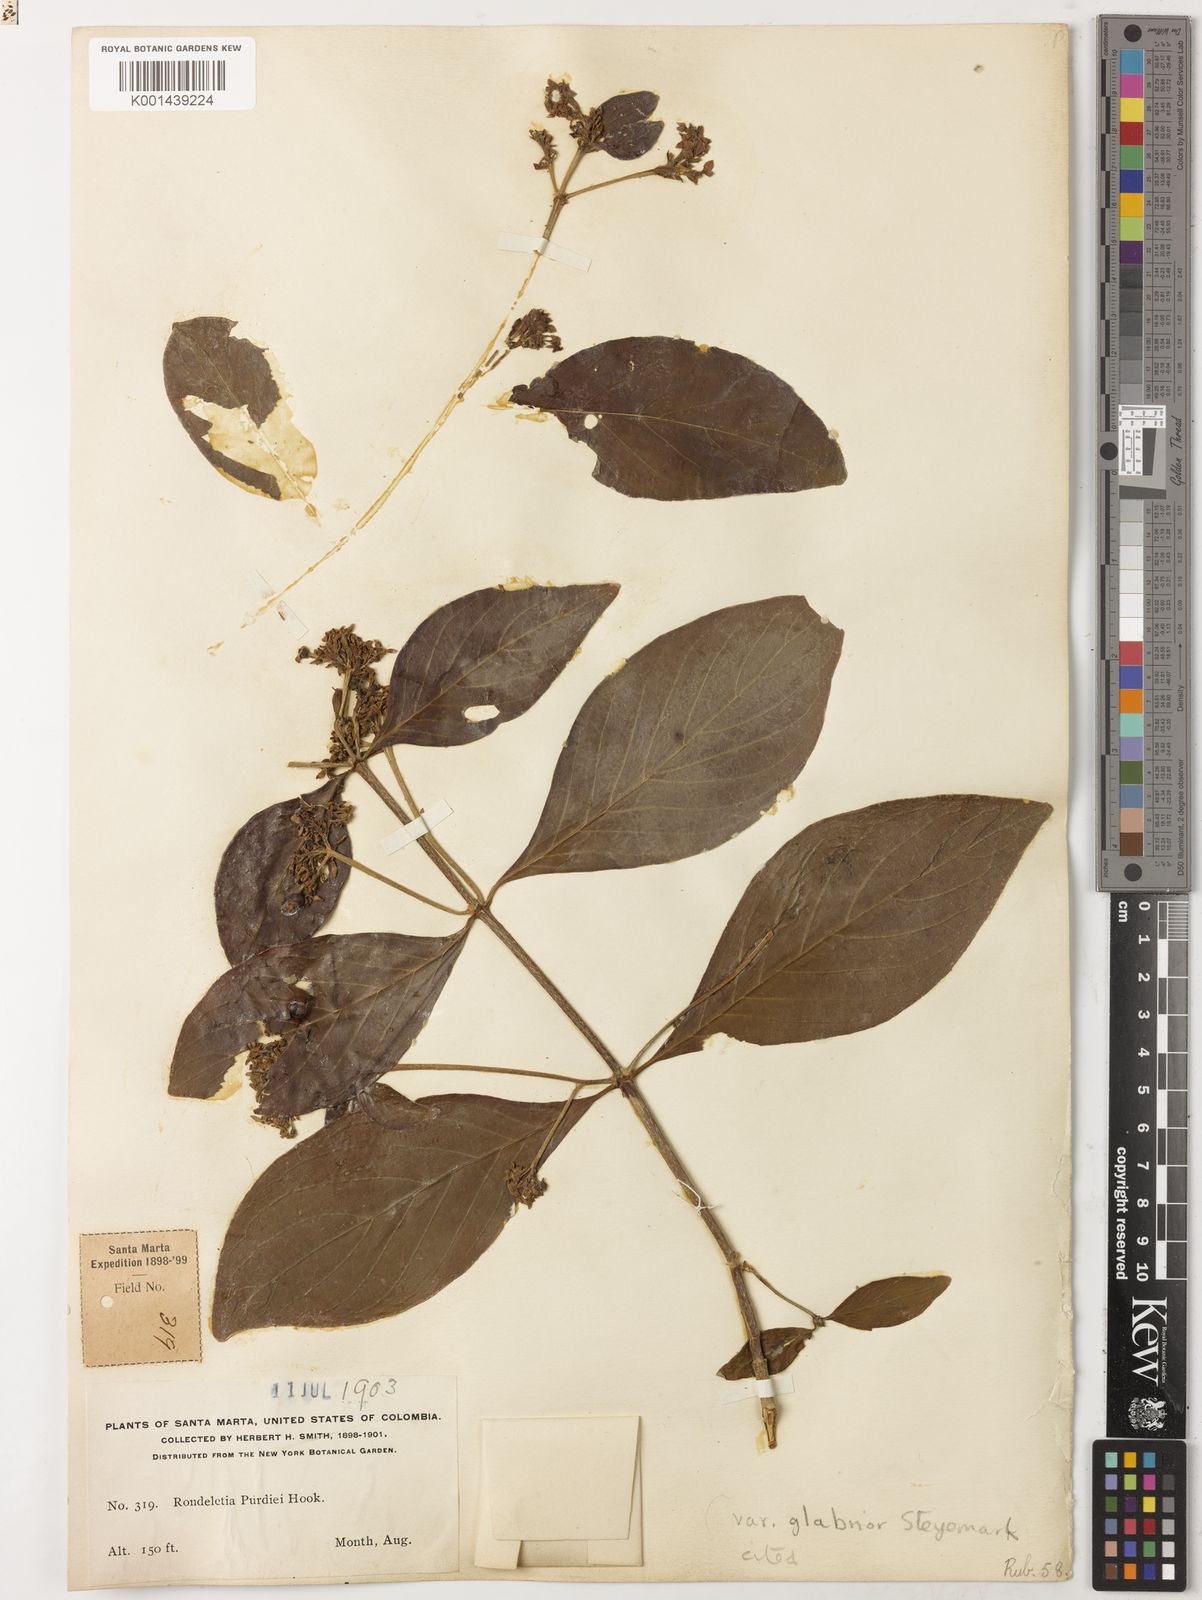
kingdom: Plantae
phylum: Tracheophyta
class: Magnoliopsida
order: Gentianales
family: Rubiaceae
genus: Rondeletia
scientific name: Rondeletia purdiei
